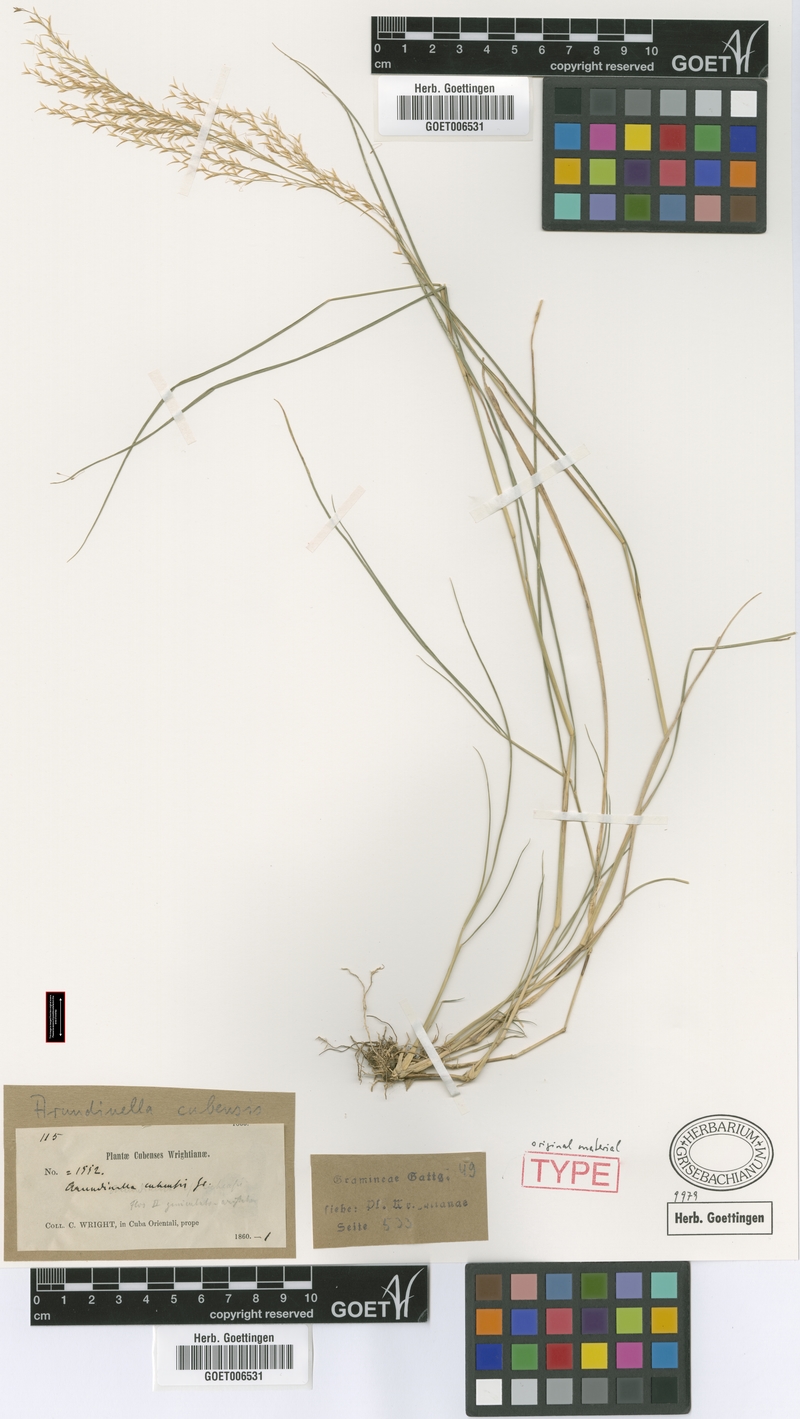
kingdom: Plantae
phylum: Tracheophyta
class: Liliopsida
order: Poales
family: Poaceae
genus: Arundinella
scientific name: Arundinella berteroniana
